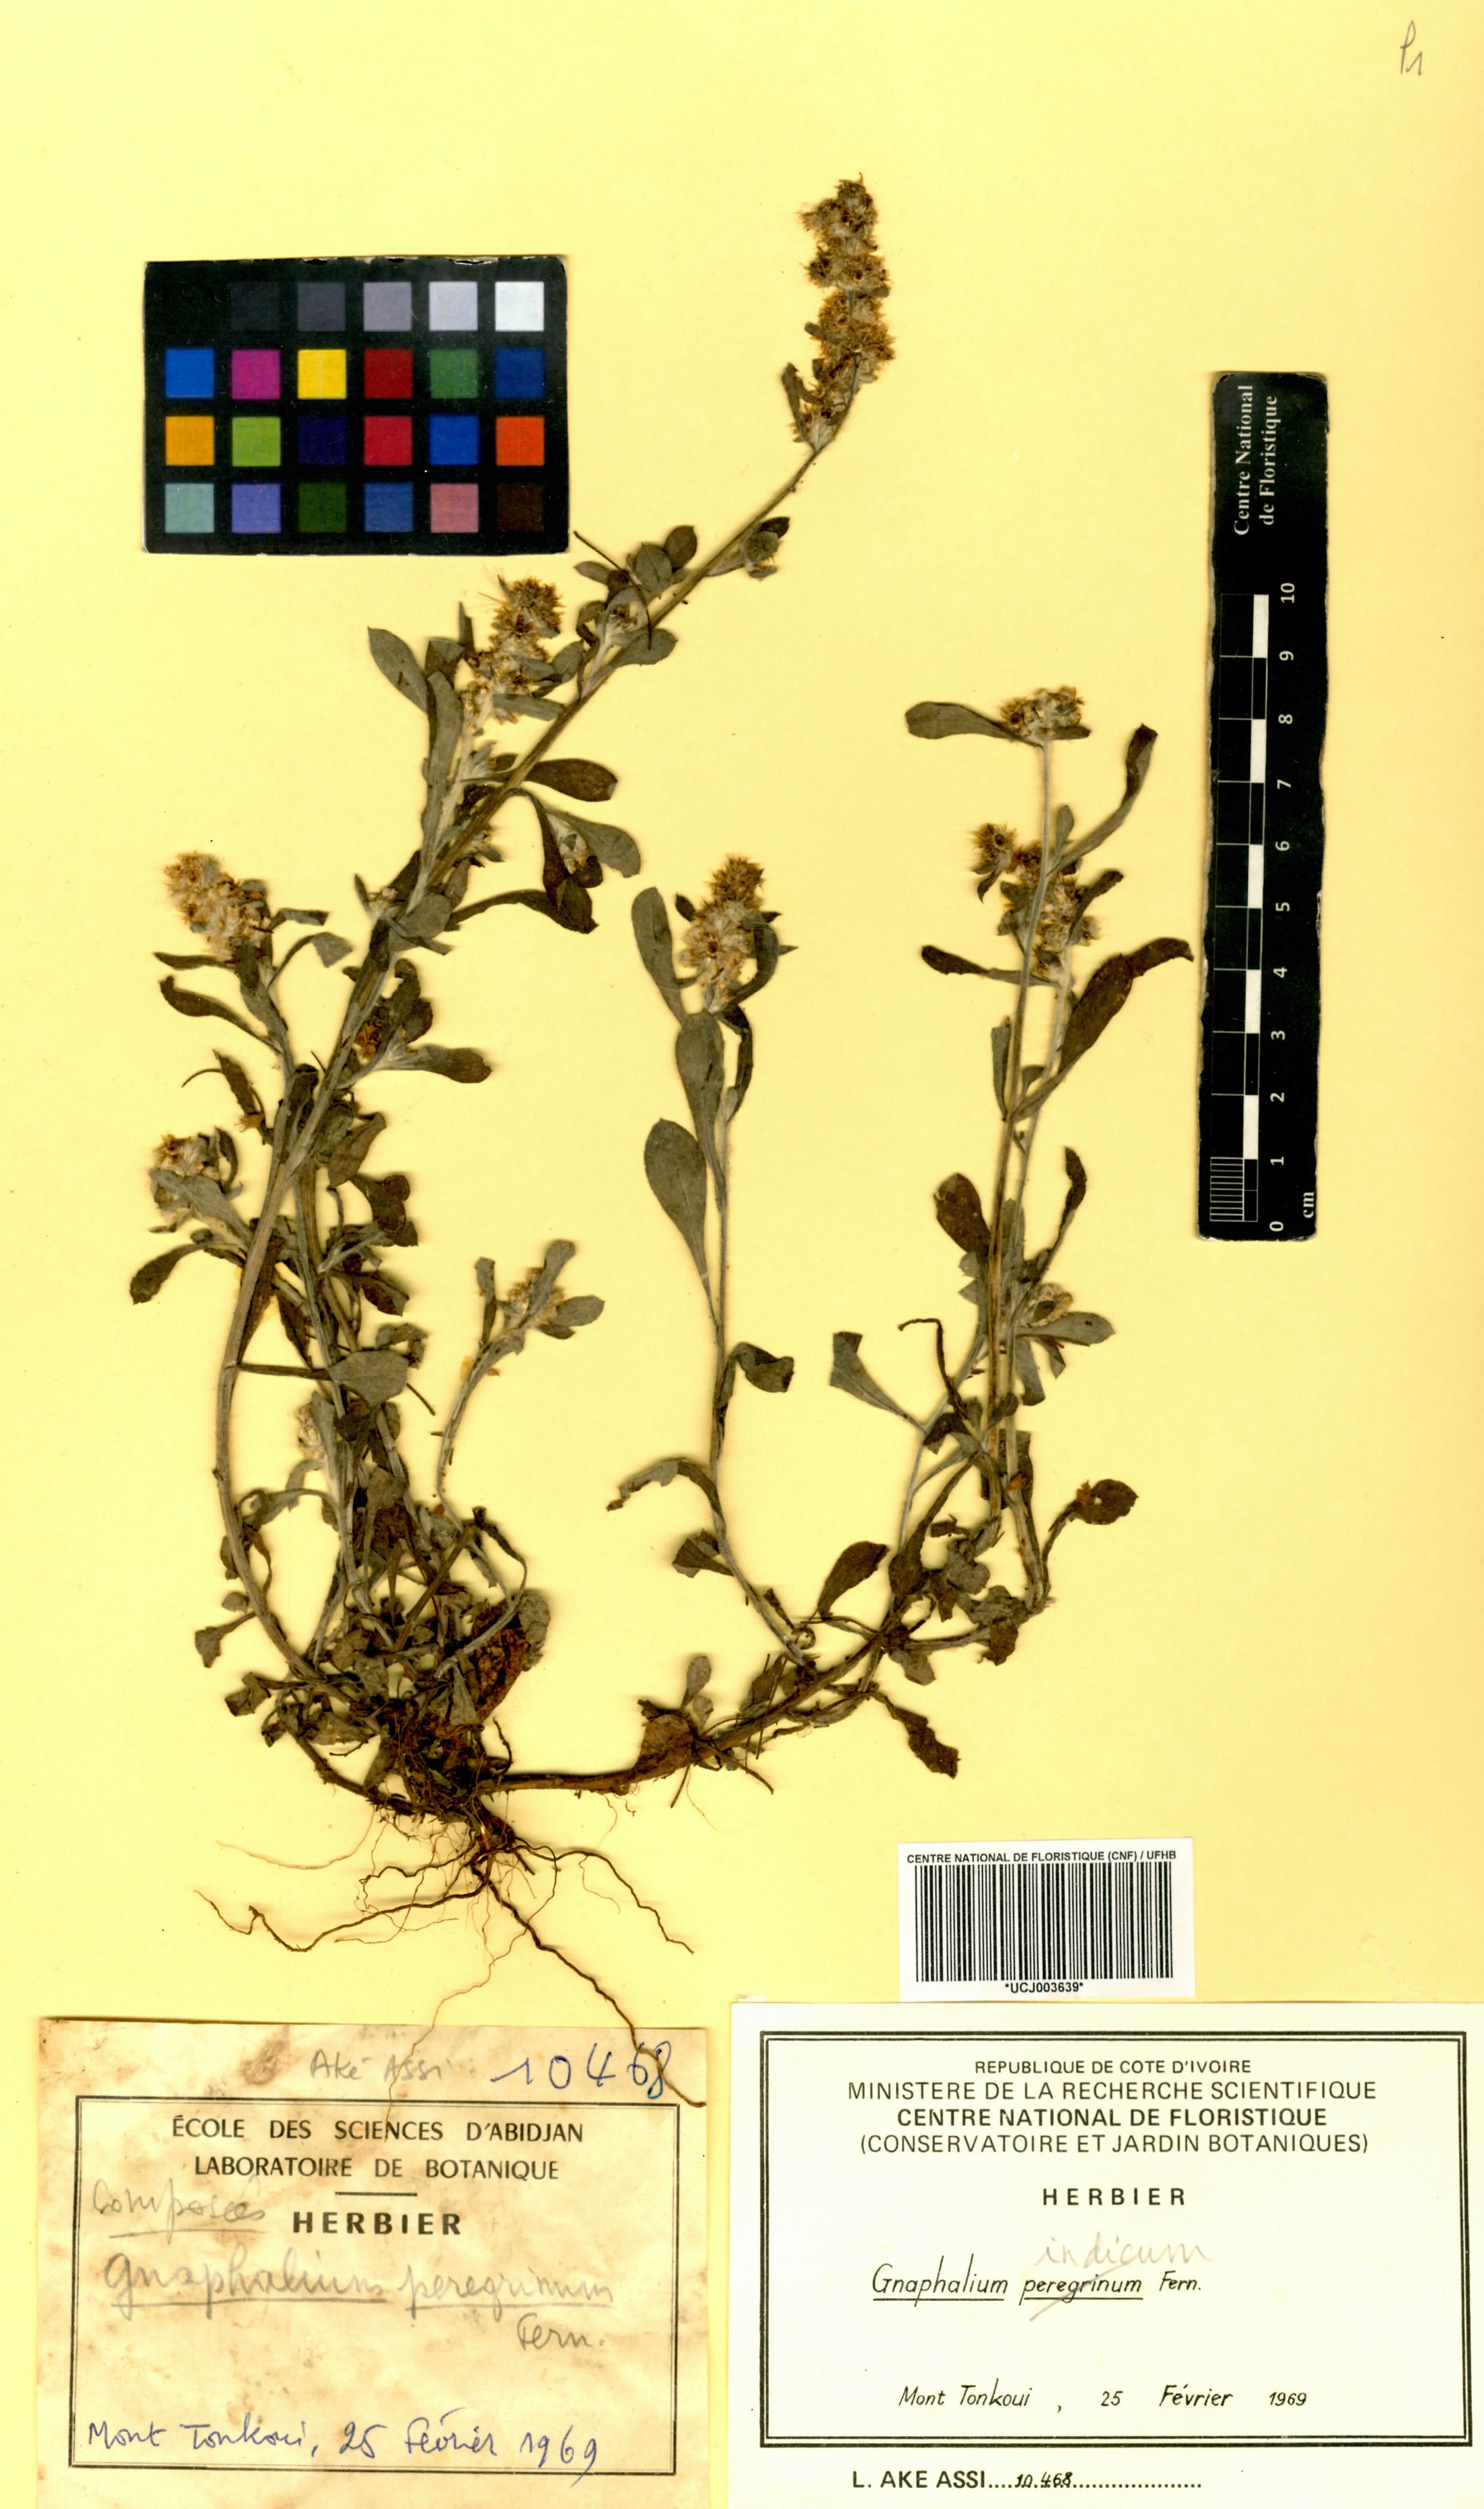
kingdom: Plantae
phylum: Tracheophyta
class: Magnoliopsida
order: Asterales
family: Asteraceae
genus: Gnaphalium
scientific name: Gnaphalium
